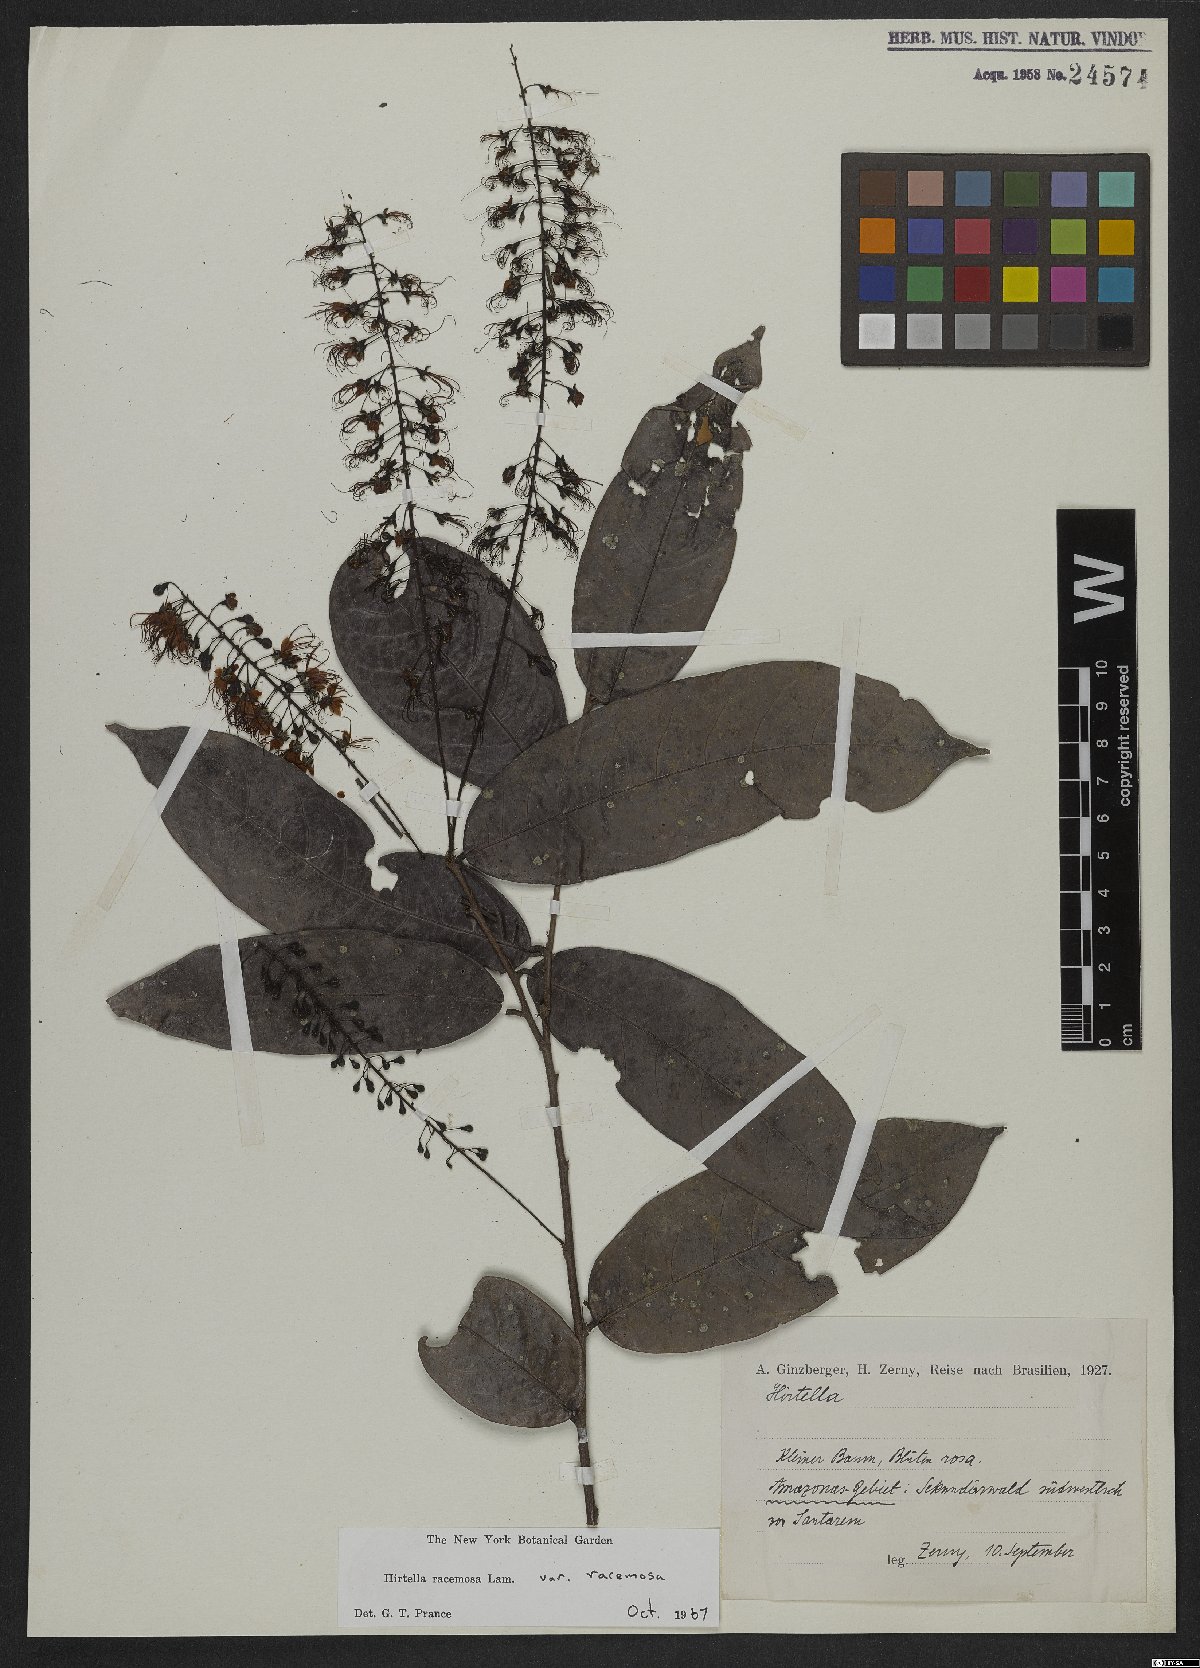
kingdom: Plantae
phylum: Tracheophyta
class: Magnoliopsida
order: Malpighiales
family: Chrysobalanaceae
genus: Hirtella
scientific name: Hirtella racemosa
